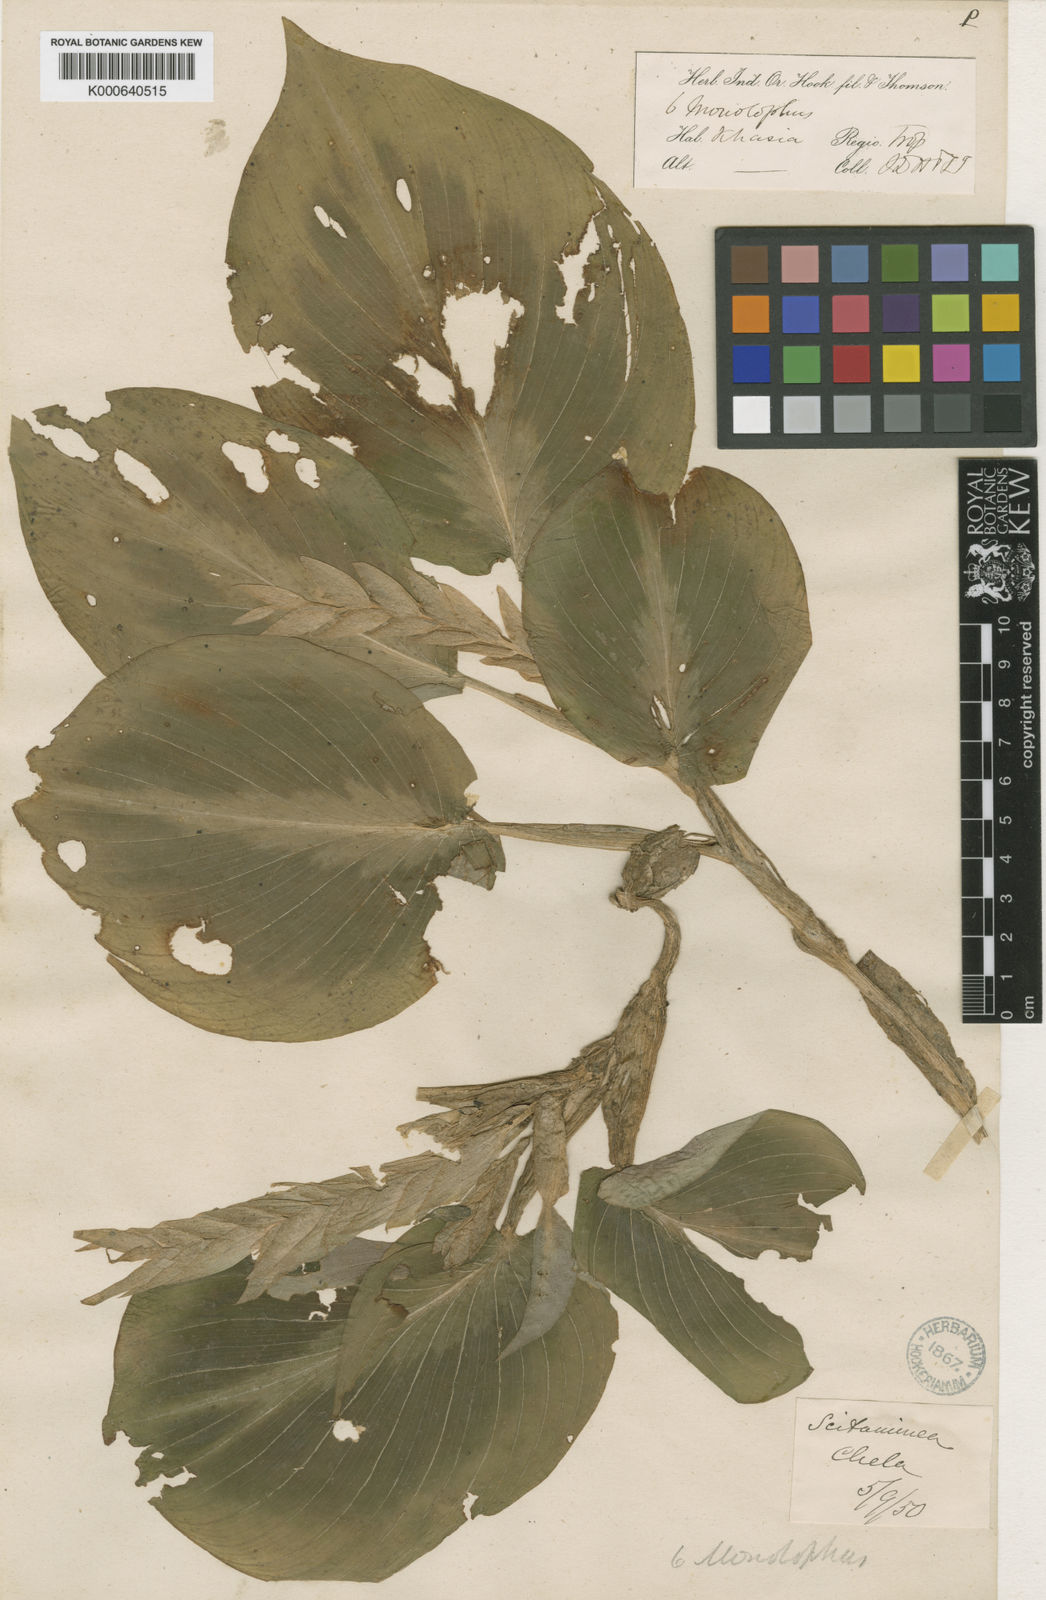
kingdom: Plantae
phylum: Tracheophyta
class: Liliopsida
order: Zingiberales
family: Zingiberaceae
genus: Boesenbergia
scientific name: Boesenbergia tiliifolia
